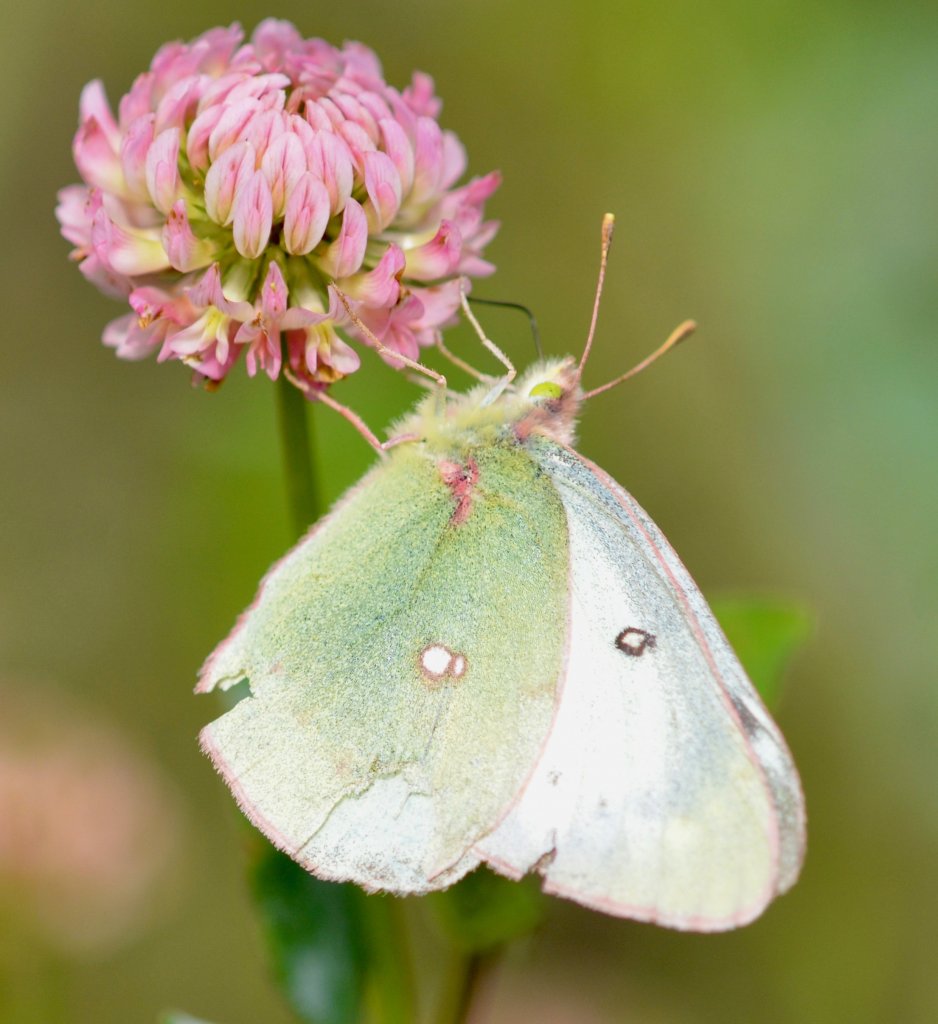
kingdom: Animalia
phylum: Arthropoda
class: Insecta
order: Lepidoptera
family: Pieridae
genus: Colias
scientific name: Colias gigantea
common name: Giant Sulphur
